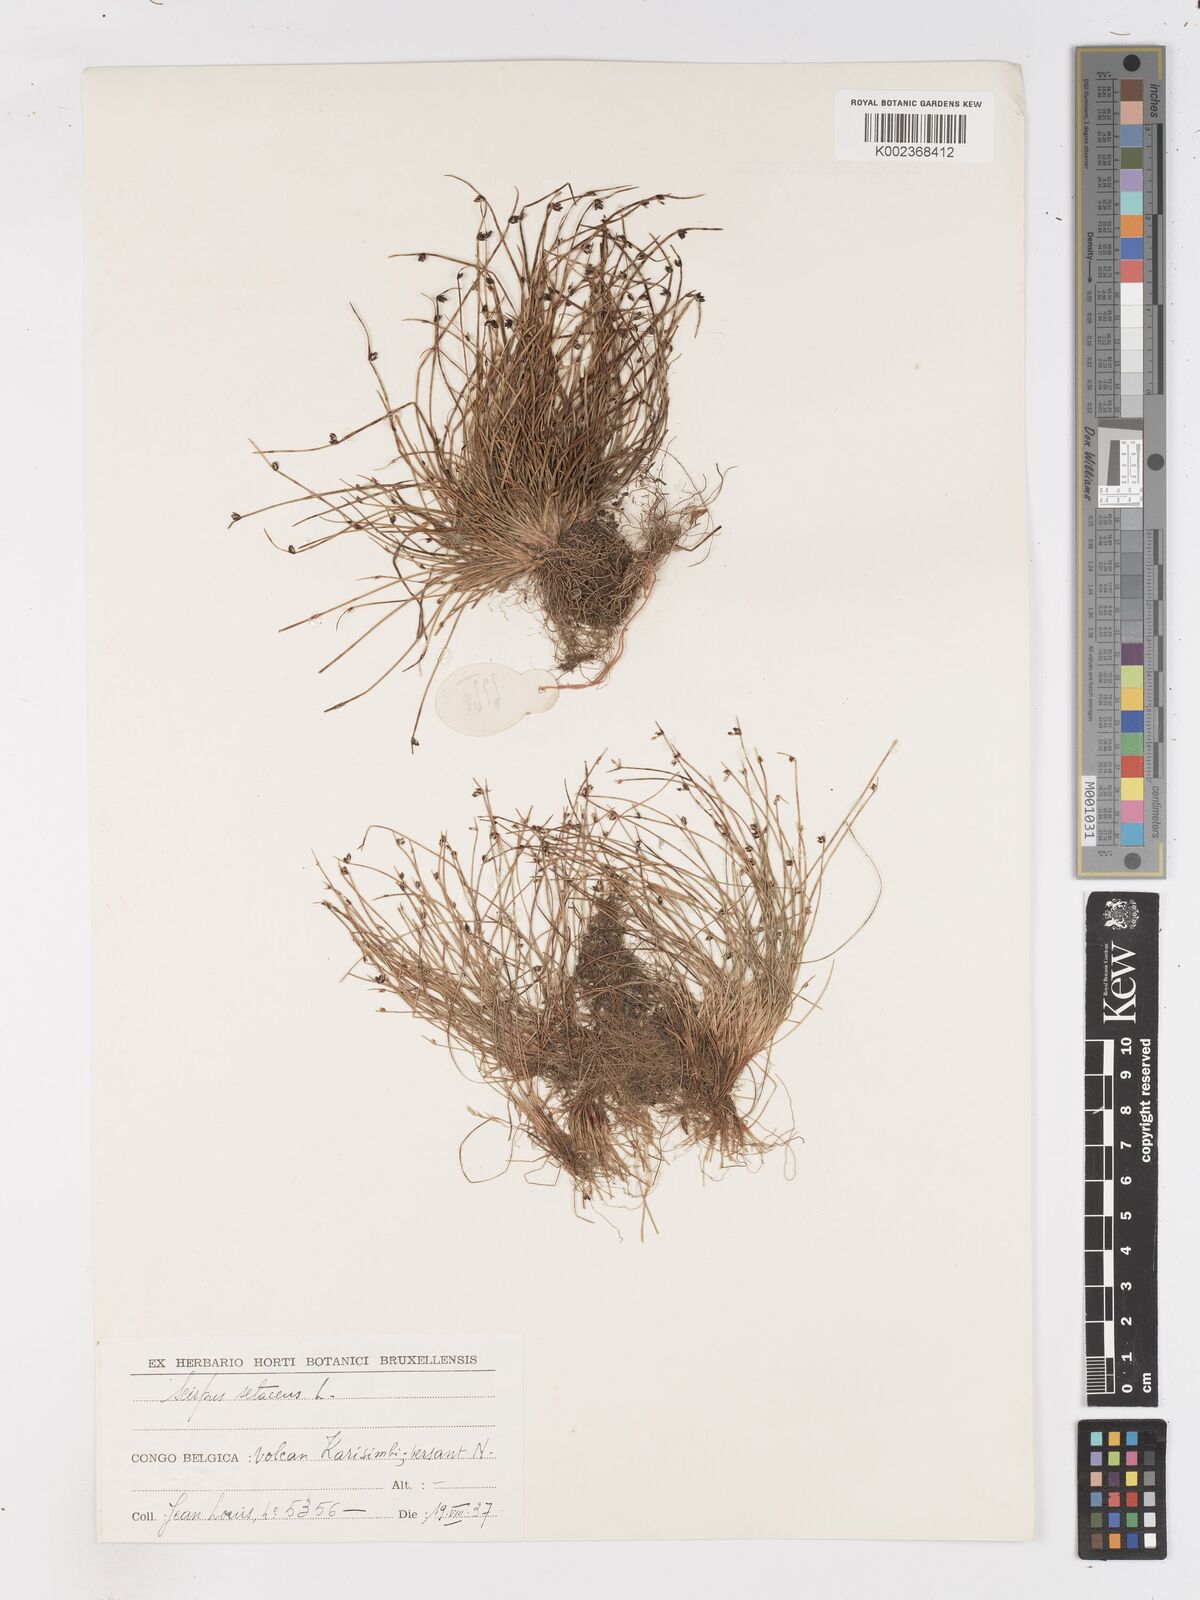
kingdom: Plantae
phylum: Tracheophyta
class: Liliopsida
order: Poales
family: Cyperaceae
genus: Isolepis
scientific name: Isolepis setacea
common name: Bristle club-rush
